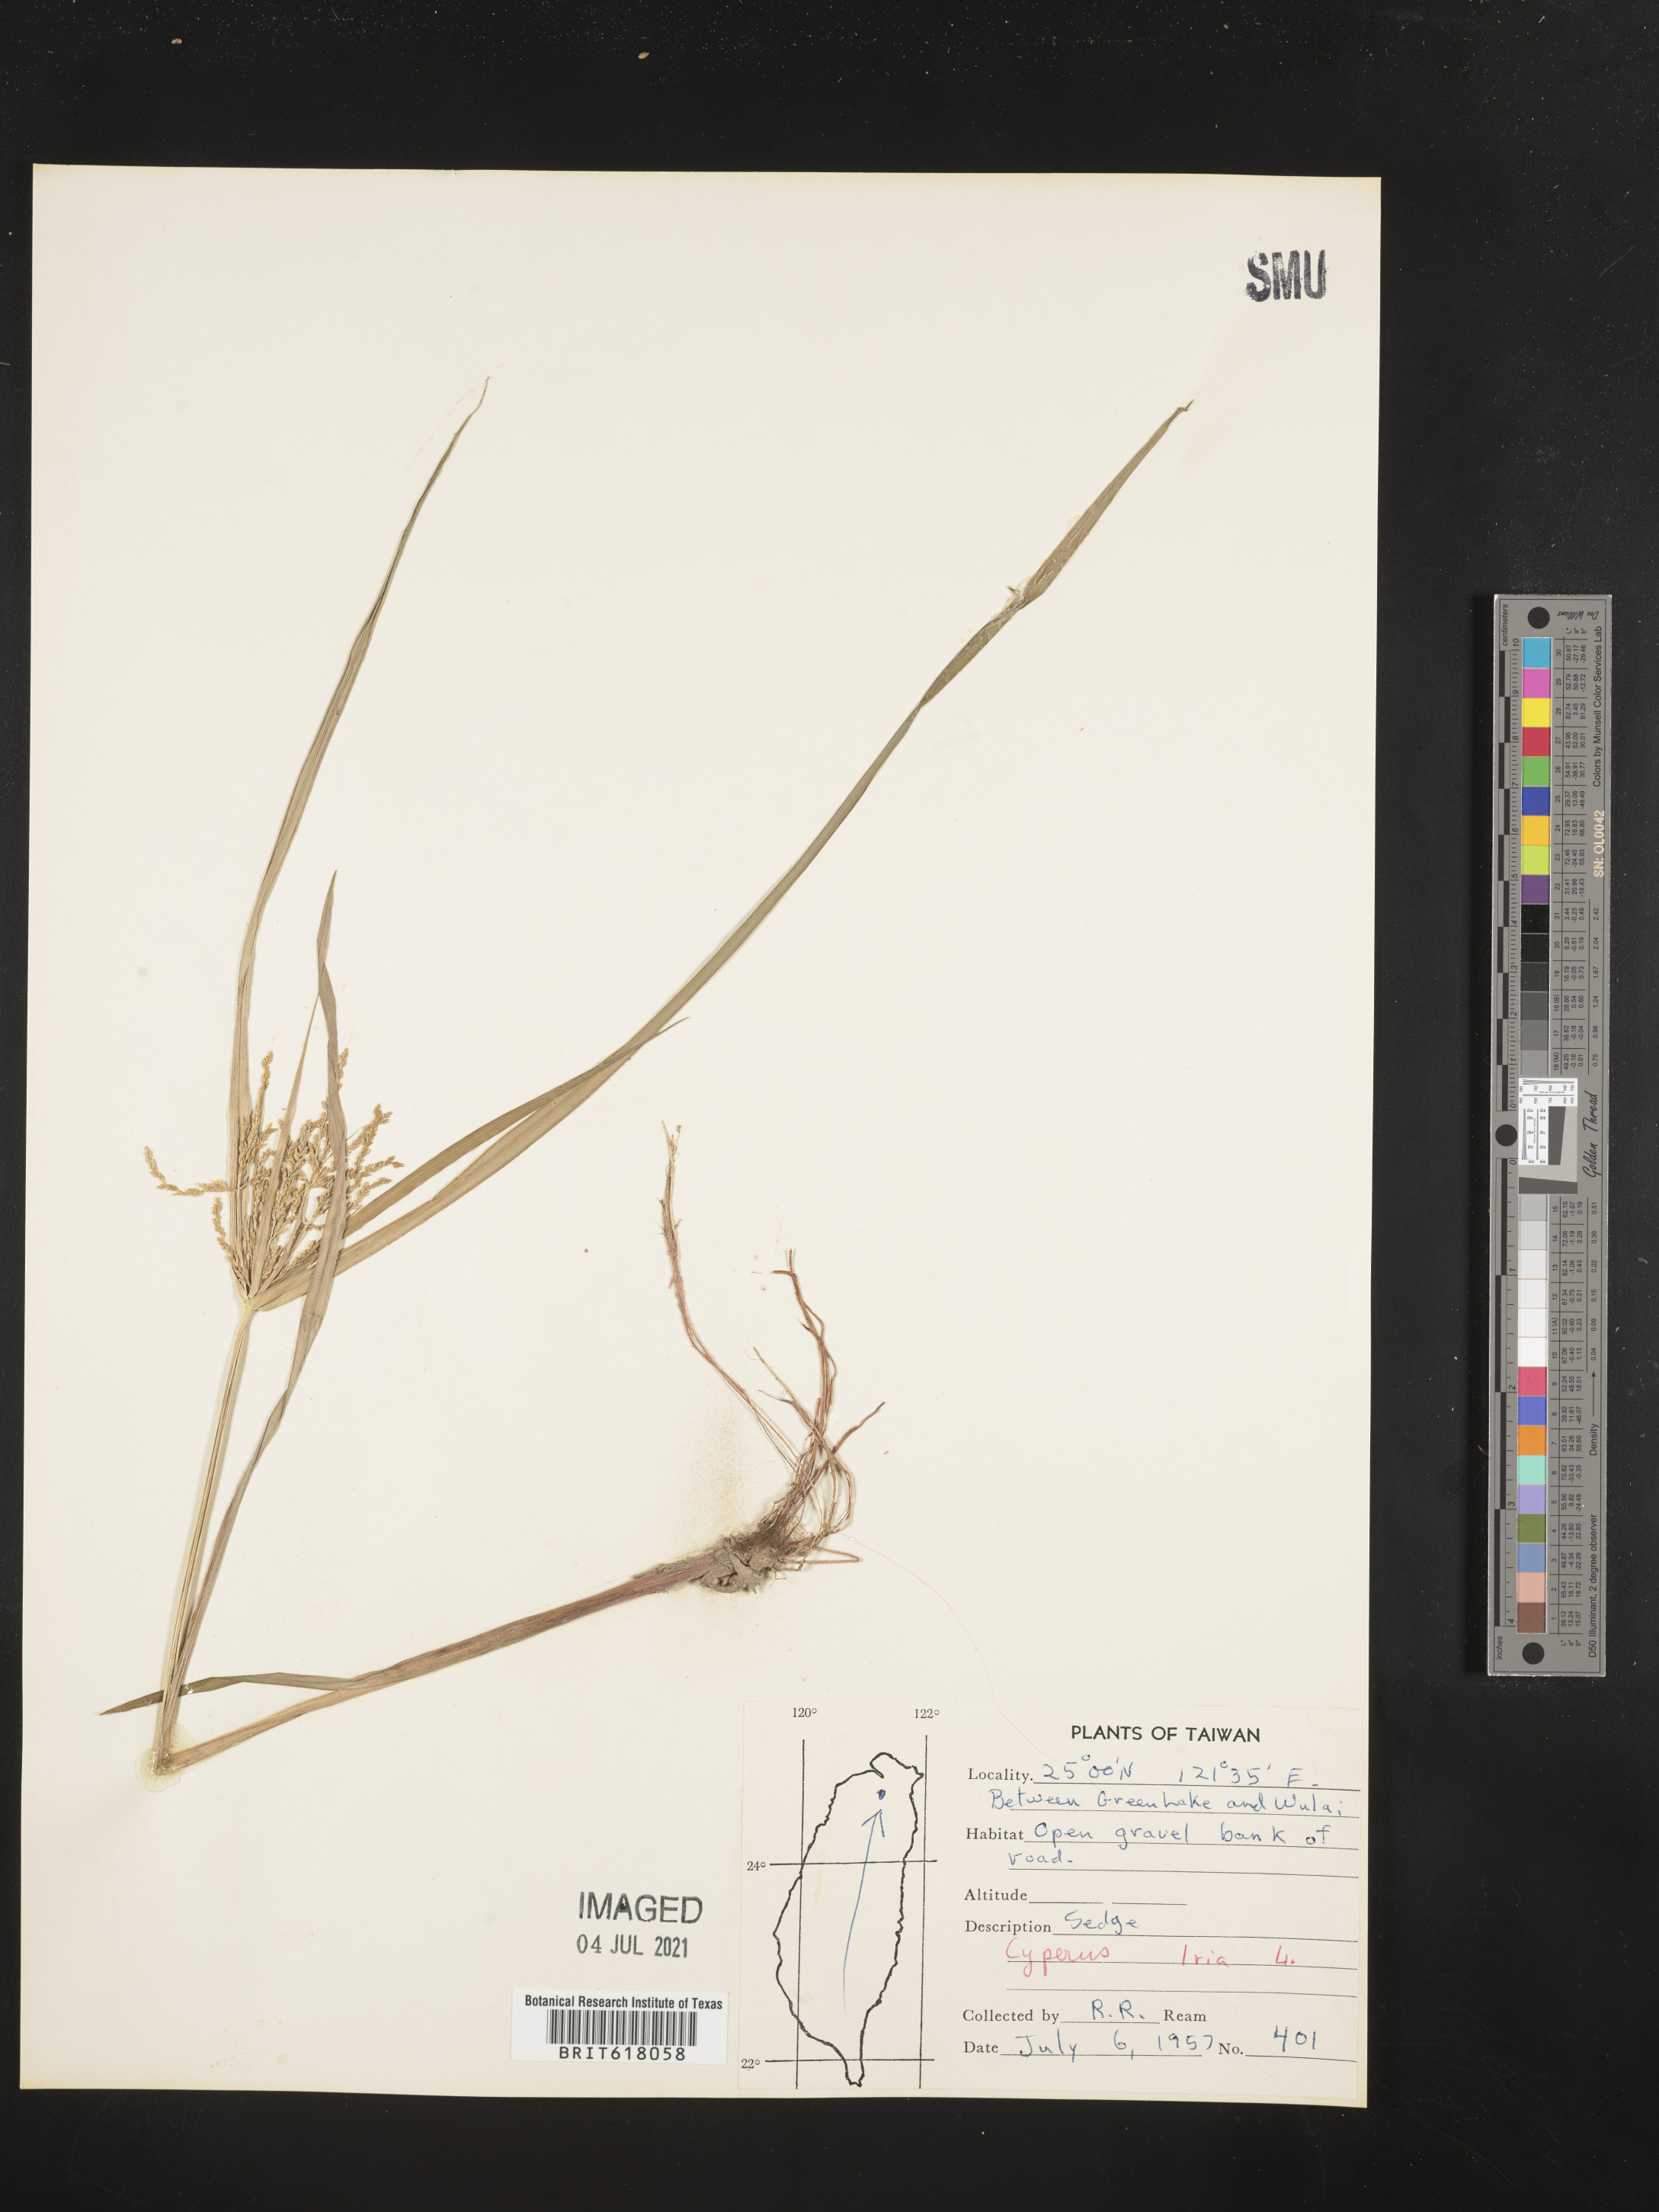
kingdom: Plantae
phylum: Tracheophyta
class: Liliopsida
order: Poales
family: Cyperaceae
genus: Cyperus
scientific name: Cyperus iria
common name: Ricefield flatsedge
